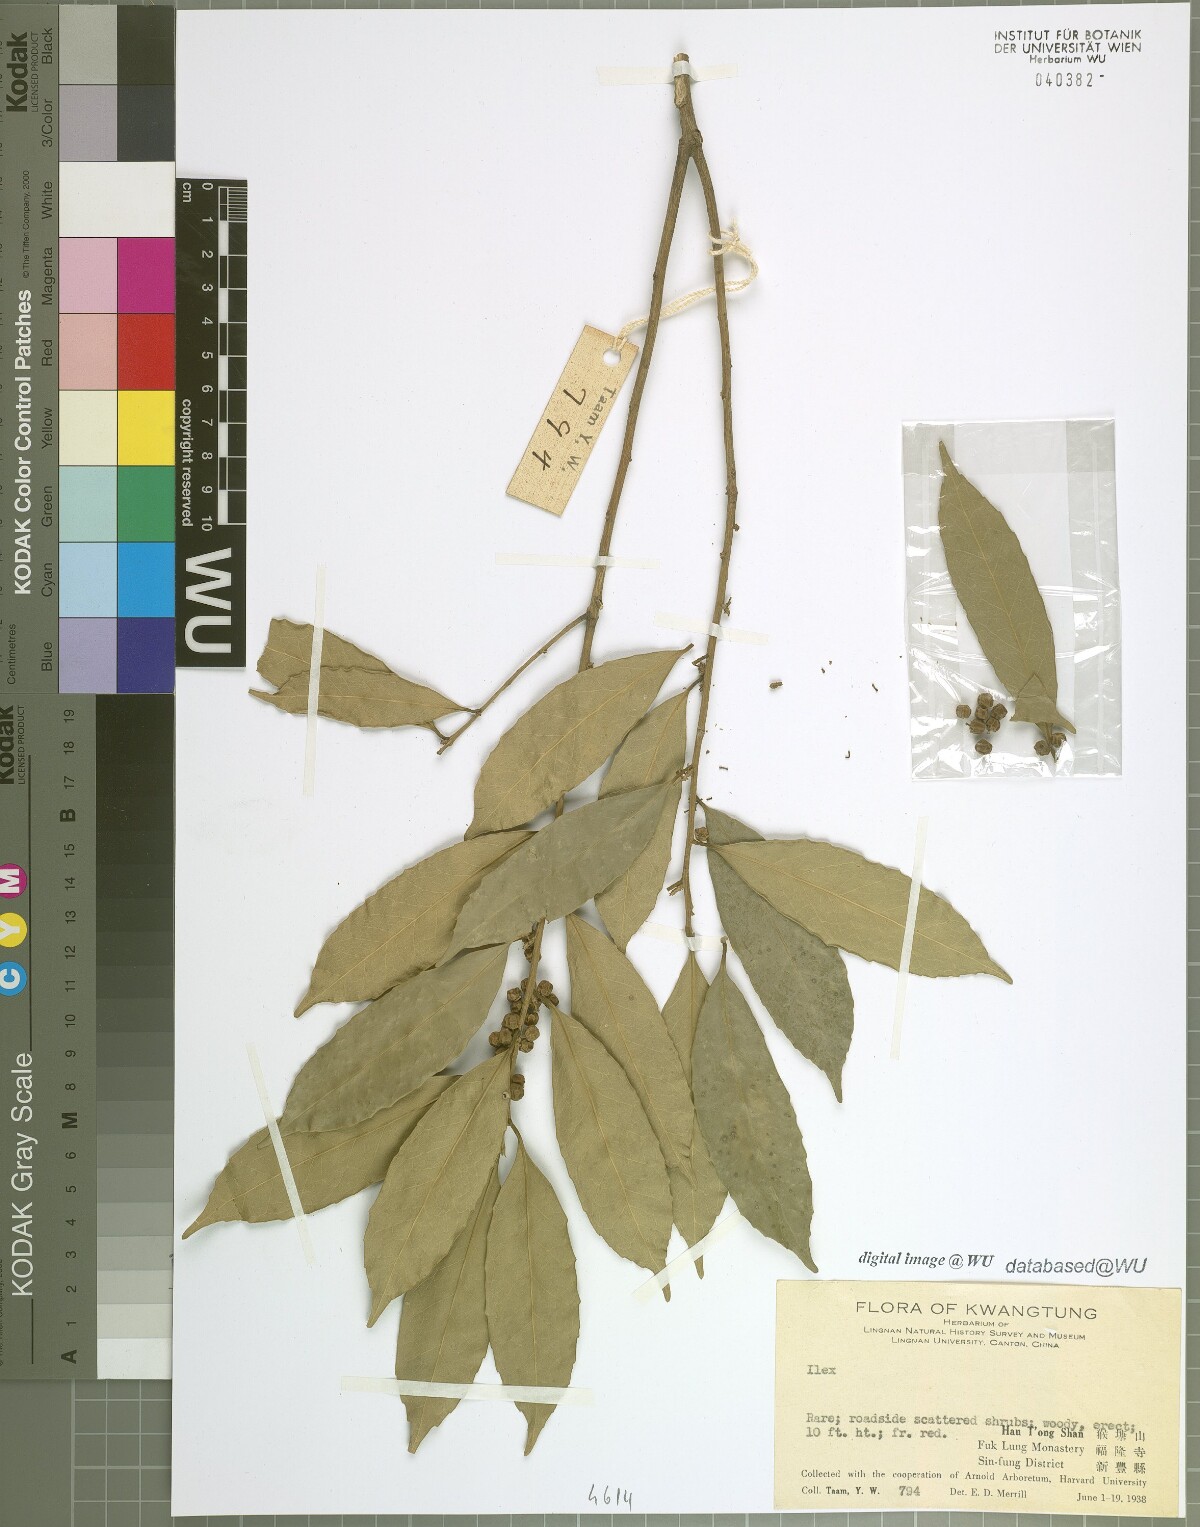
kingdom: Plantae
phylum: Tracheophyta
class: Magnoliopsida
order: Aquifoliales
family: Aquifoliaceae
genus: Ilex
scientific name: Ilex
